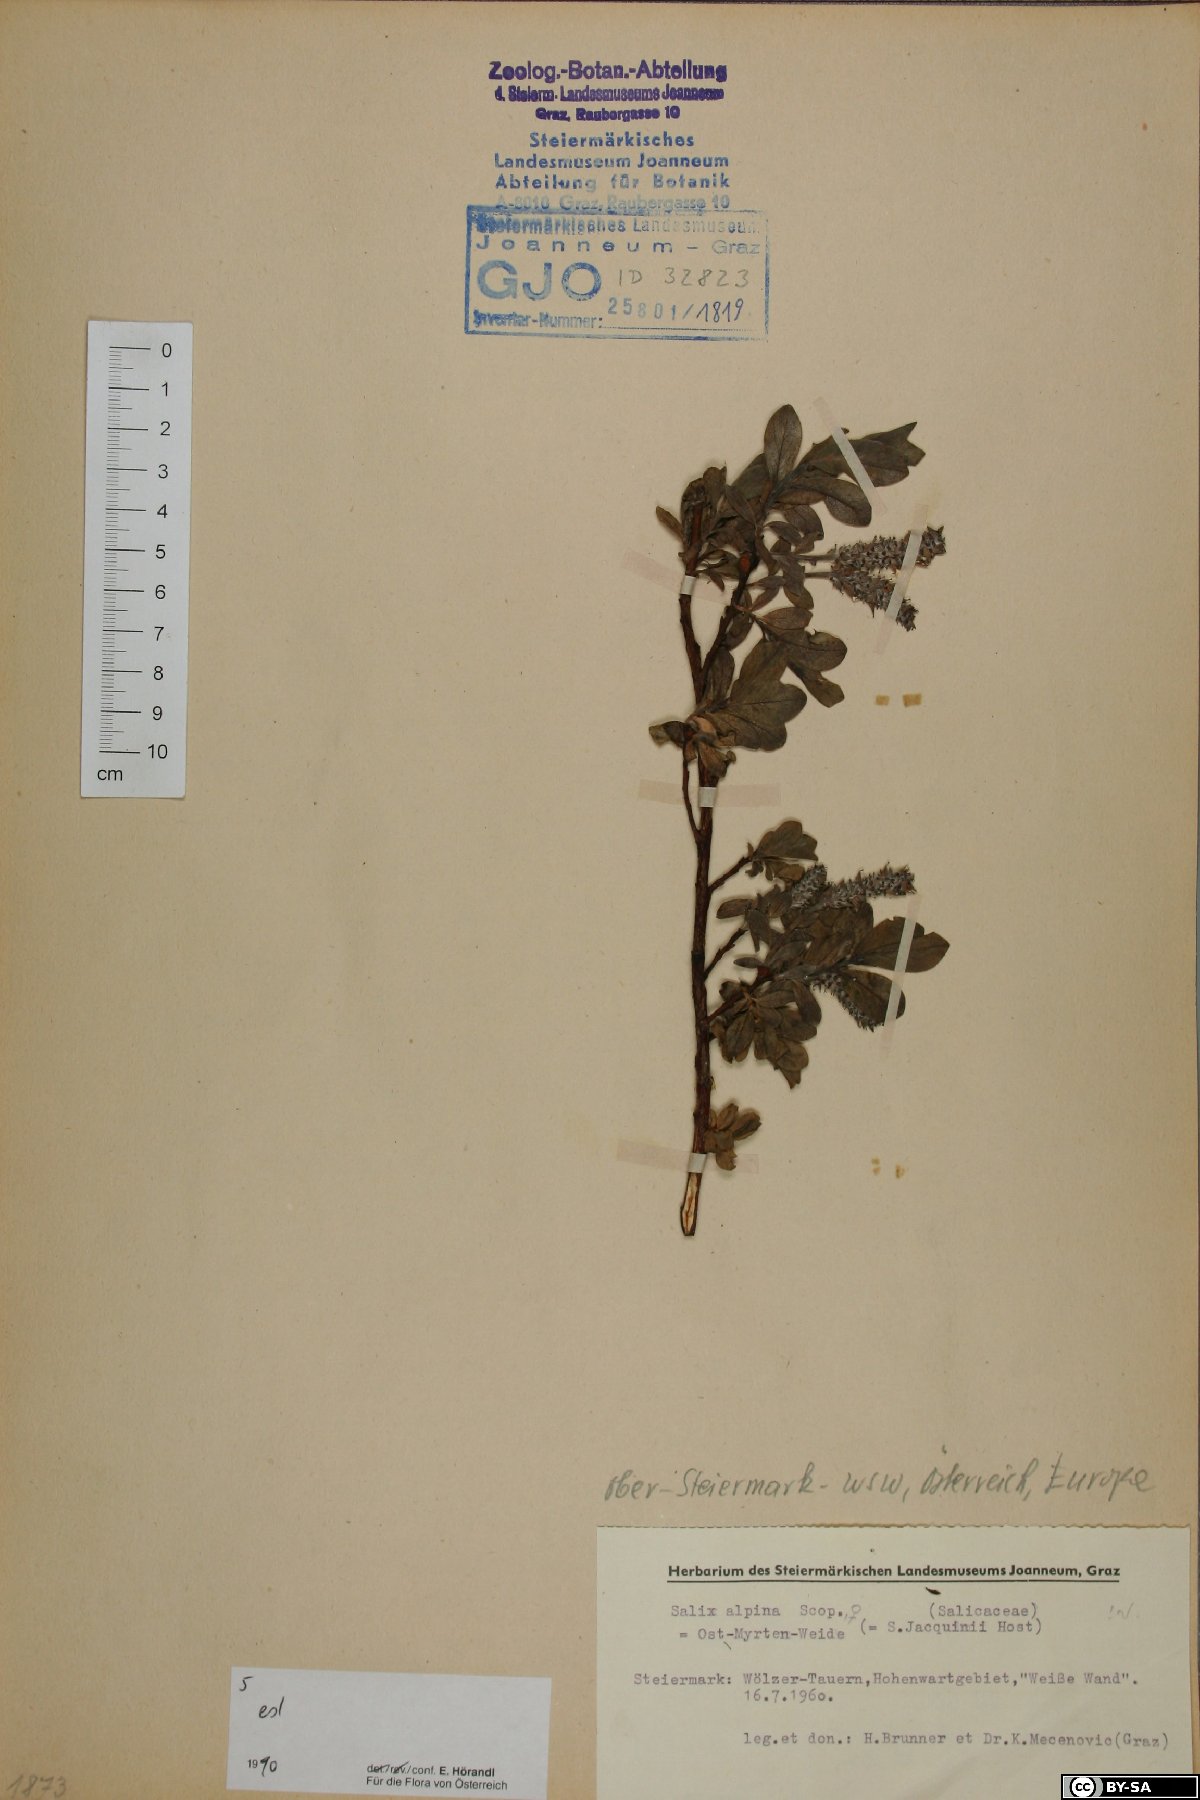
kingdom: Plantae
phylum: Tracheophyta
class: Magnoliopsida
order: Malpighiales
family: Salicaceae
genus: Salix
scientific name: Salix alpina
